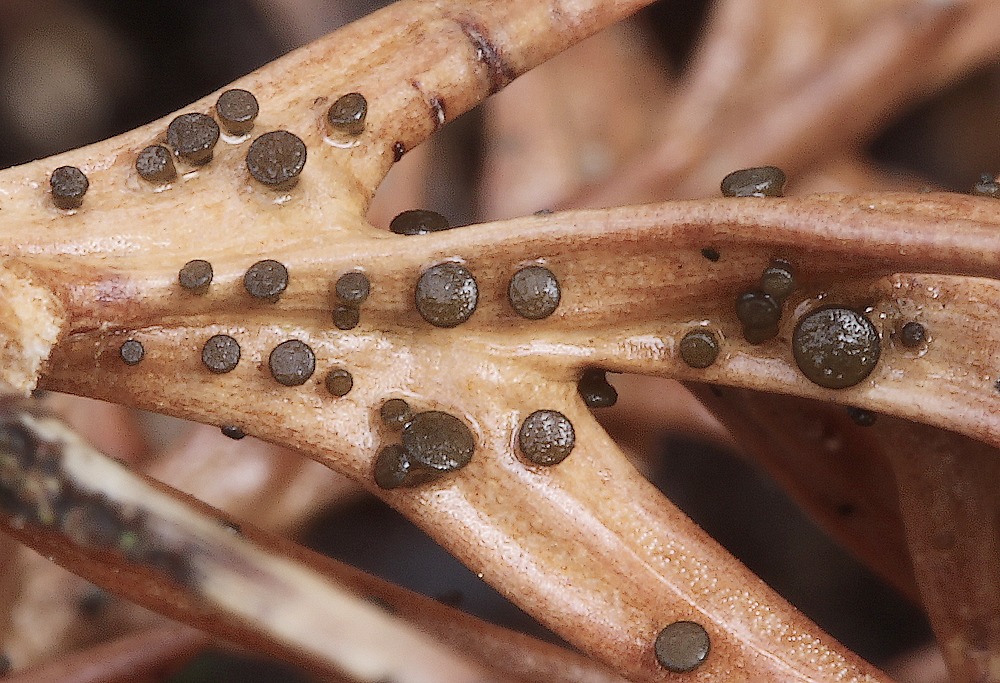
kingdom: Fungi
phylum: Ascomycota
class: Leotiomycetes
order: Helotiales
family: Gelatinodiscaceae
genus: Chloroscypha
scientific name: Chloroscypha seaveri
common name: kortstilket cypresskive
